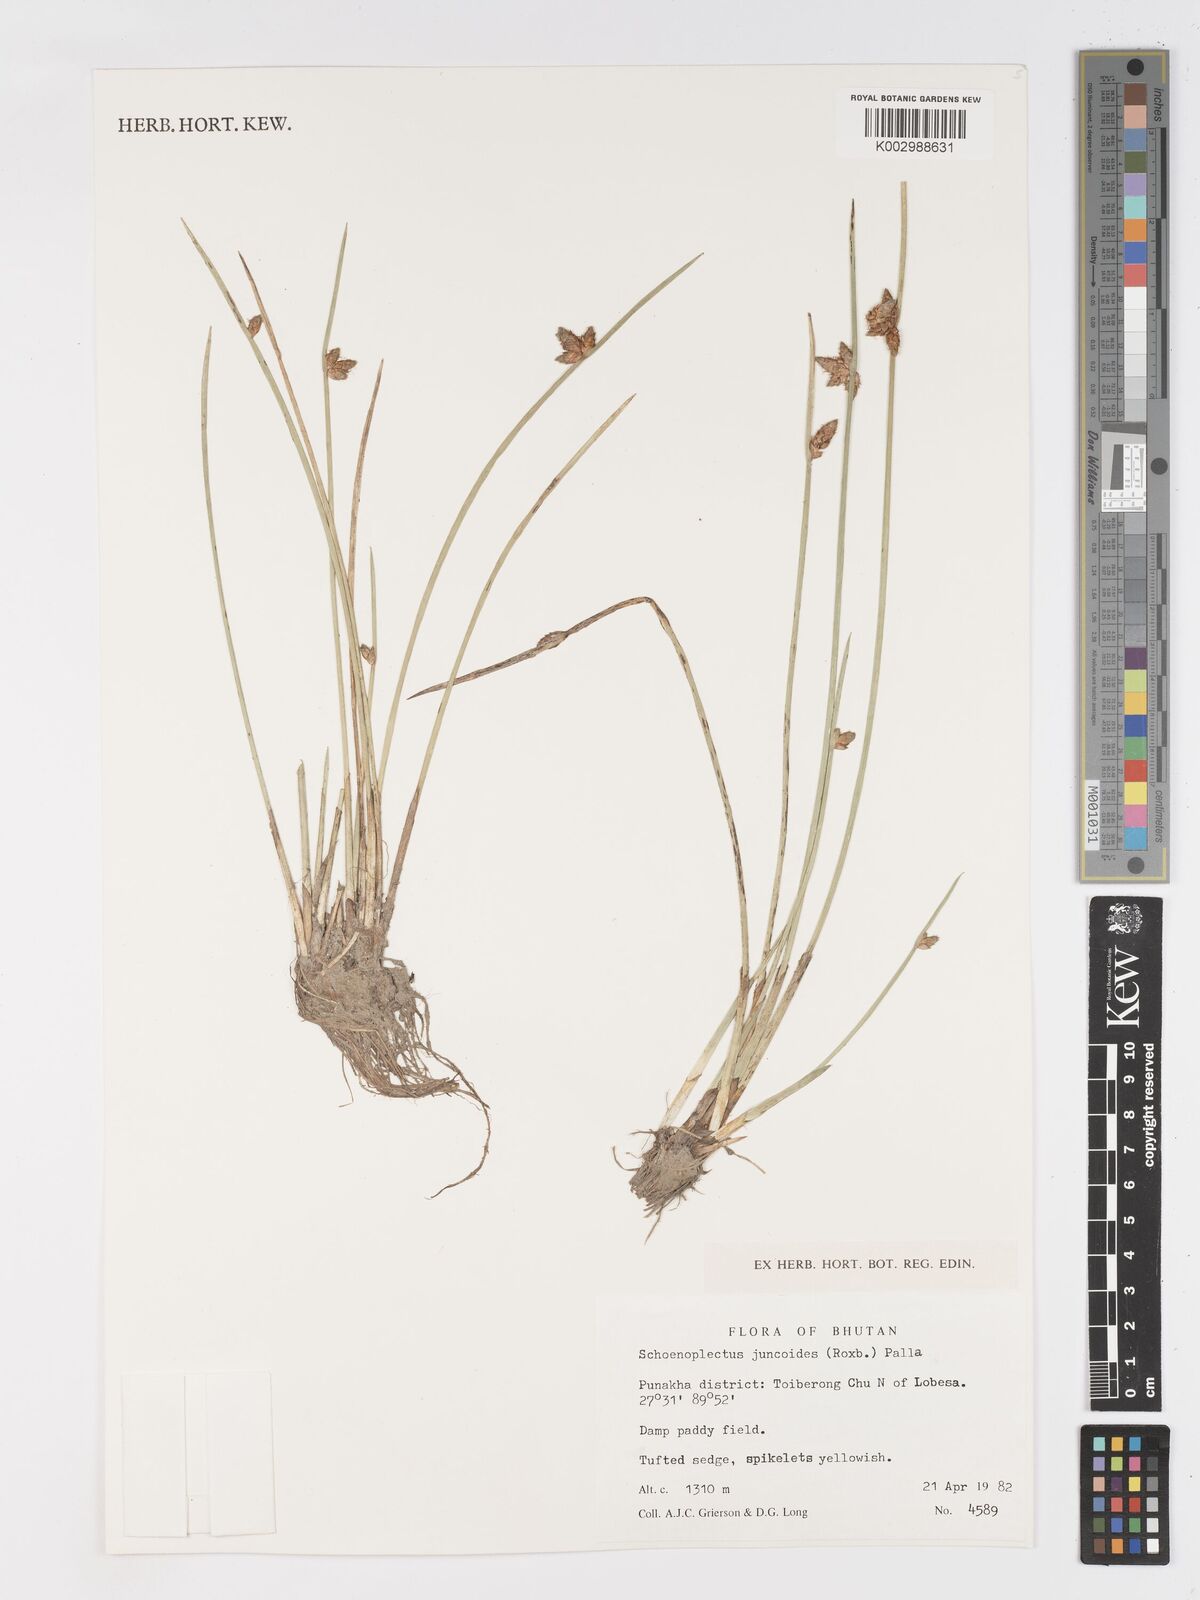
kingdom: Plantae
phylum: Tracheophyta
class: Liliopsida
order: Poales
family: Cyperaceae
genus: Schoenoplectiella
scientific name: Schoenoplectiella juncoides
